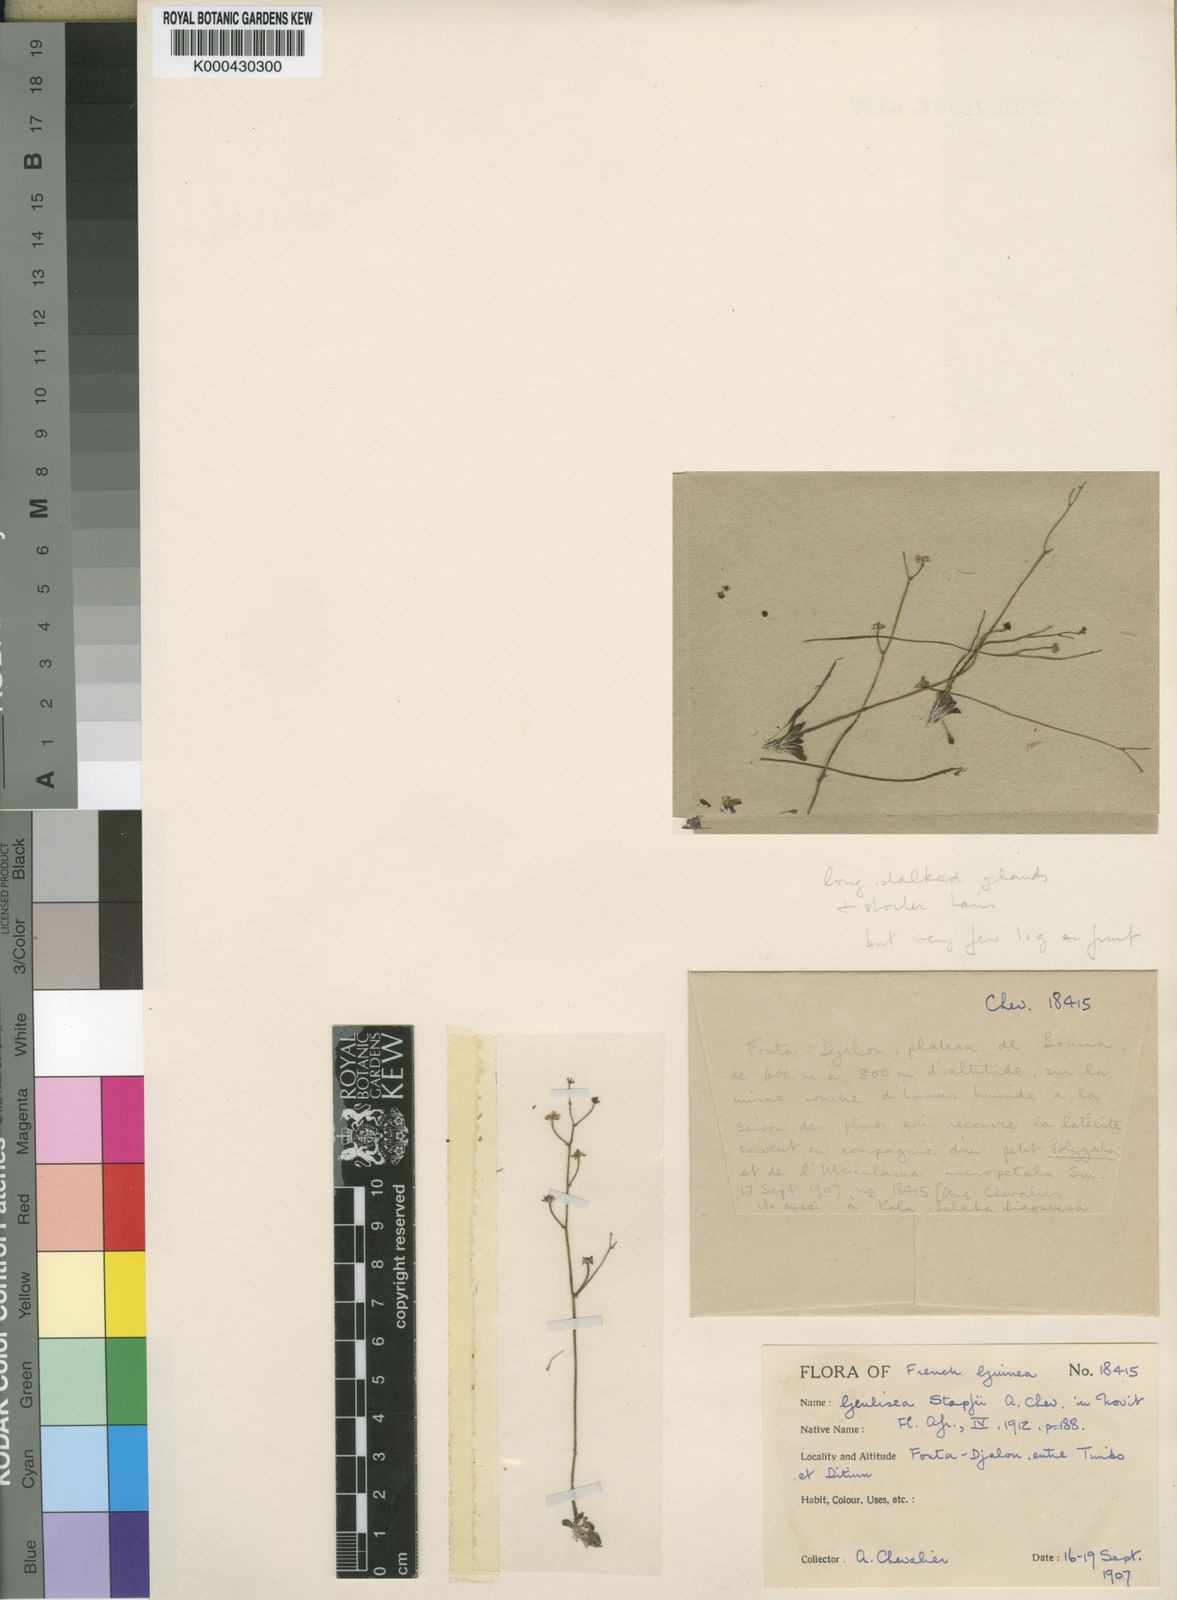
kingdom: Plantae
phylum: Tracheophyta
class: Magnoliopsida
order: Lamiales
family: Lentibulariaceae
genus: Genlisea
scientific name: Genlisea africana
